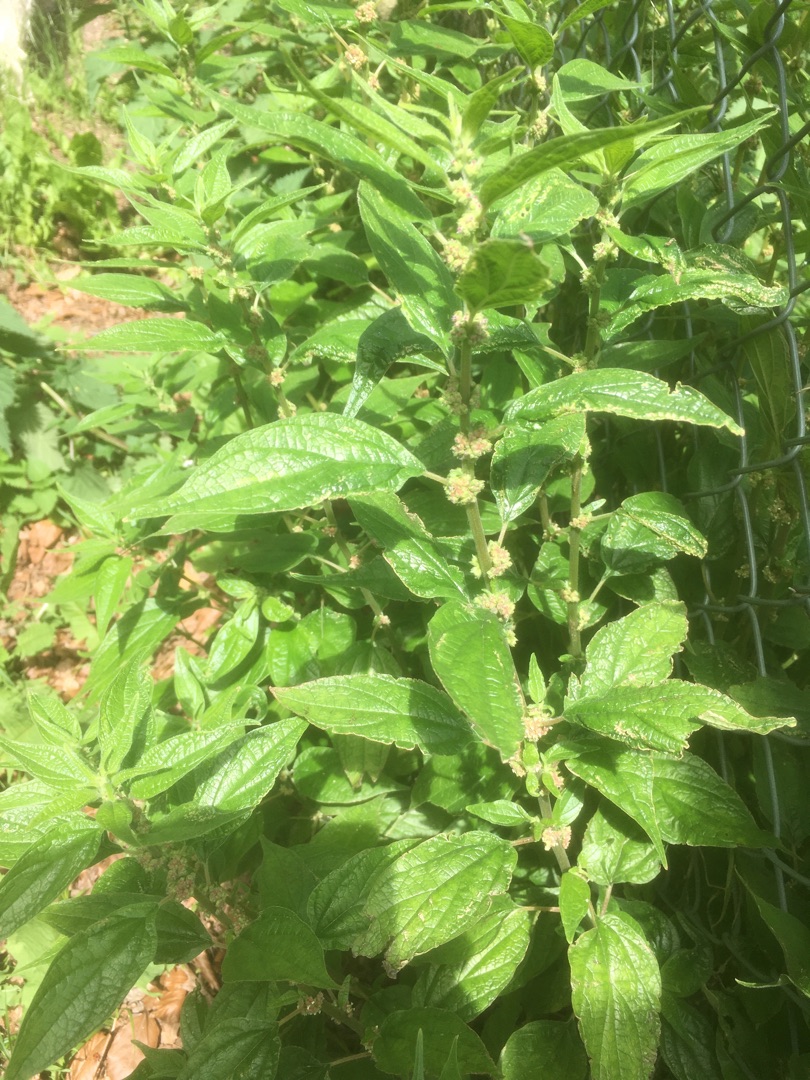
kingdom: Plantae
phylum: Tracheophyta
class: Magnoliopsida
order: Rosales
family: Urticaceae
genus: Parietaria
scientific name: Parietaria officinalis
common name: Almindelig springknap
